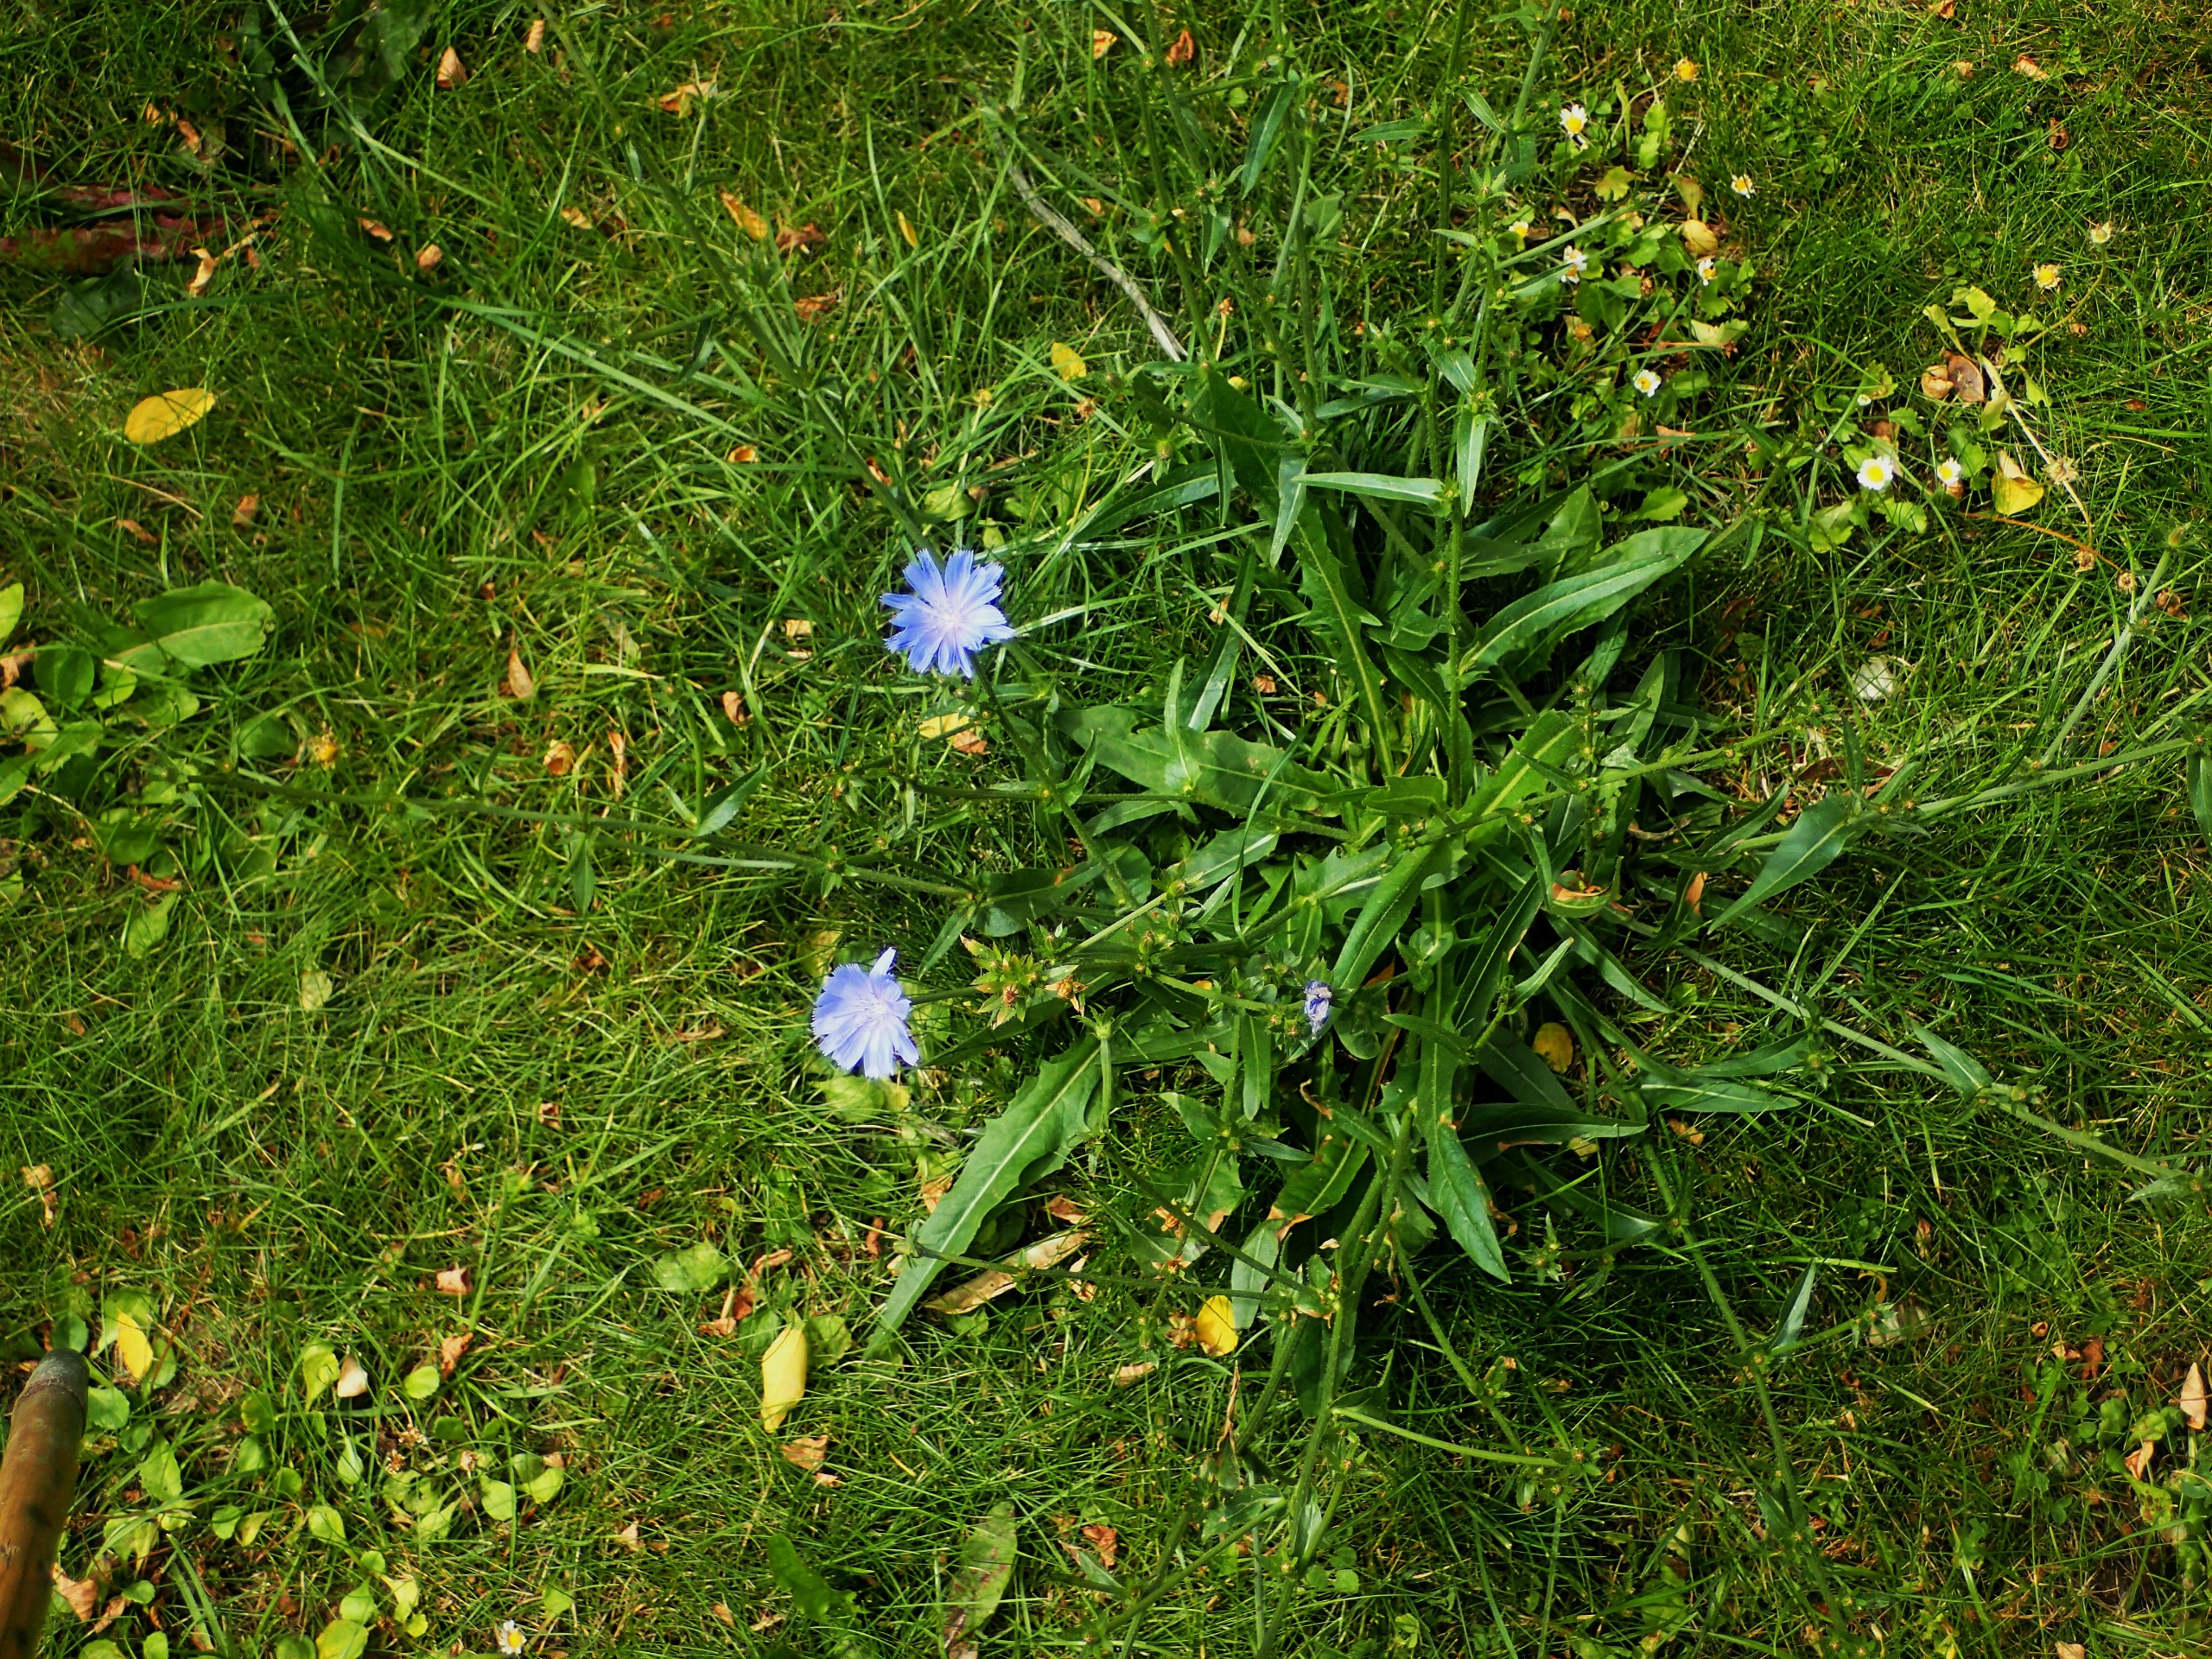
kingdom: Plantae
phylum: Tracheophyta
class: Magnoliopsida
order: Asterales
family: Asteraceae
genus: Cichorium
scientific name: Cichorium intybus
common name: Cikorie
